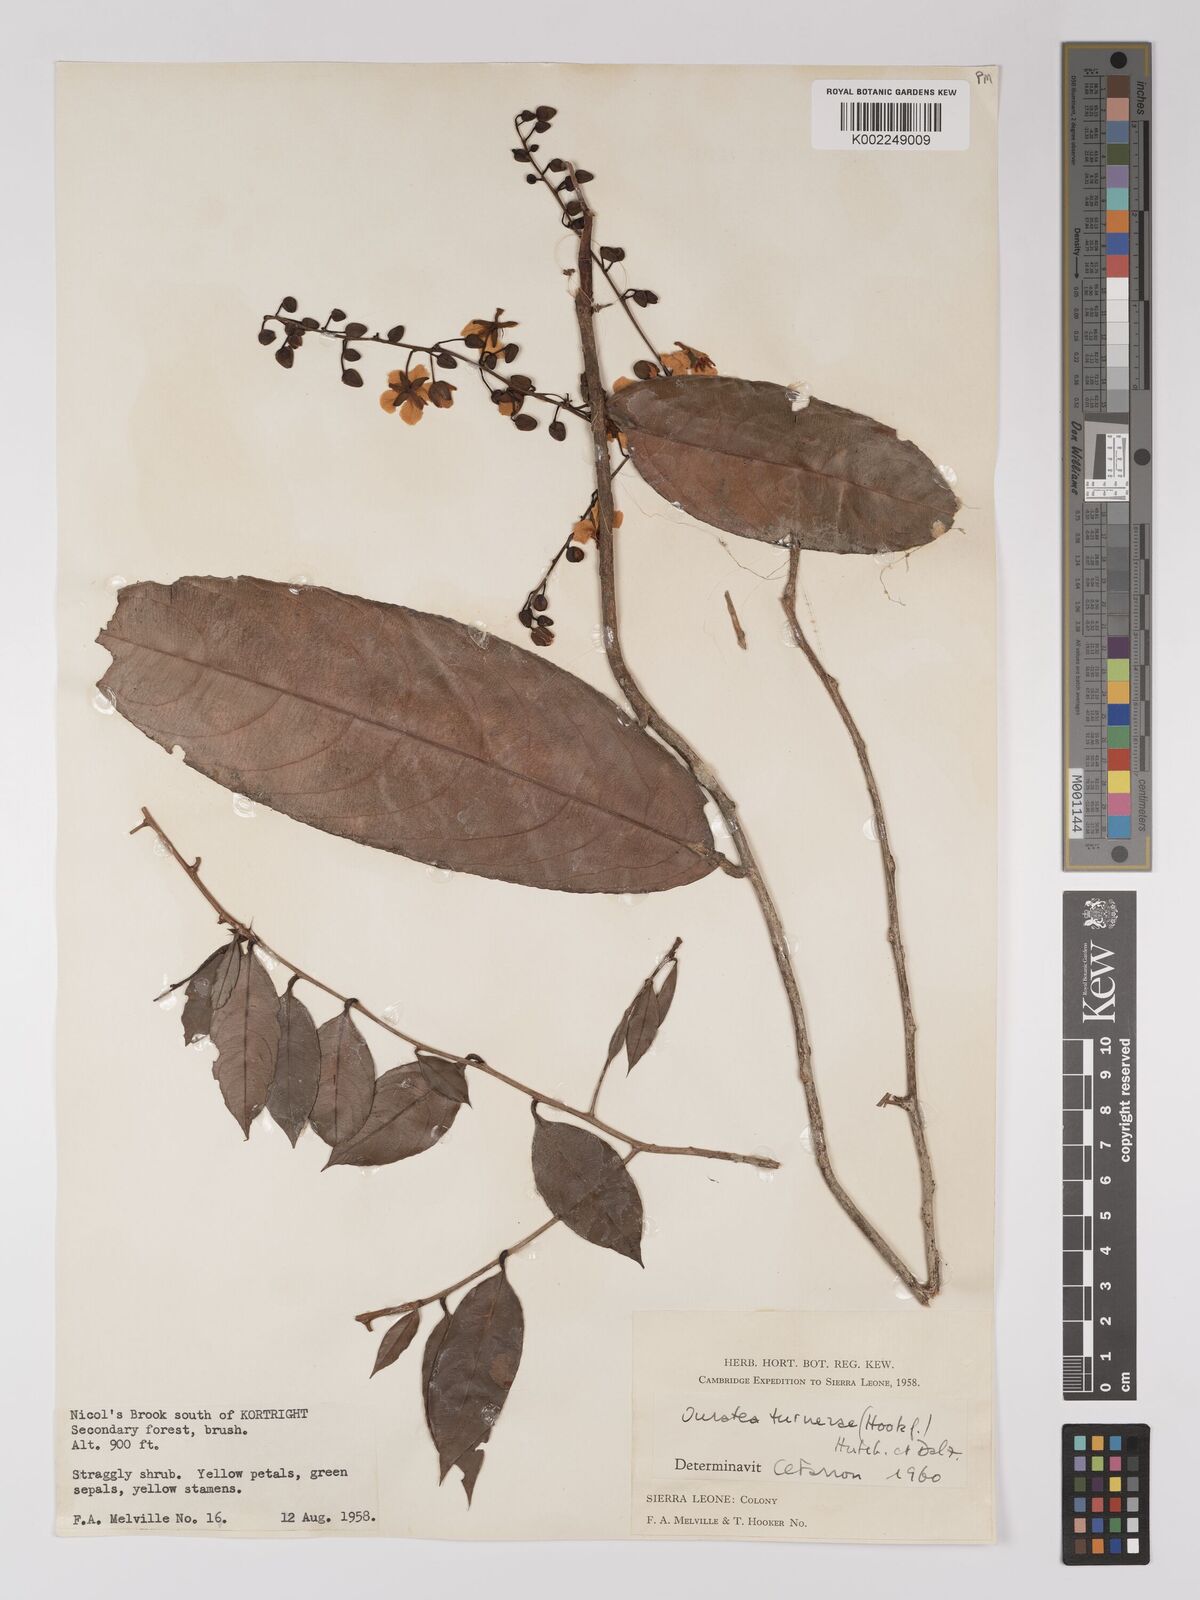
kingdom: Plantae
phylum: Tracheophyta
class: Magnoliopsida
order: Malpighiales
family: Ochnaceae
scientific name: Ochnaceae
